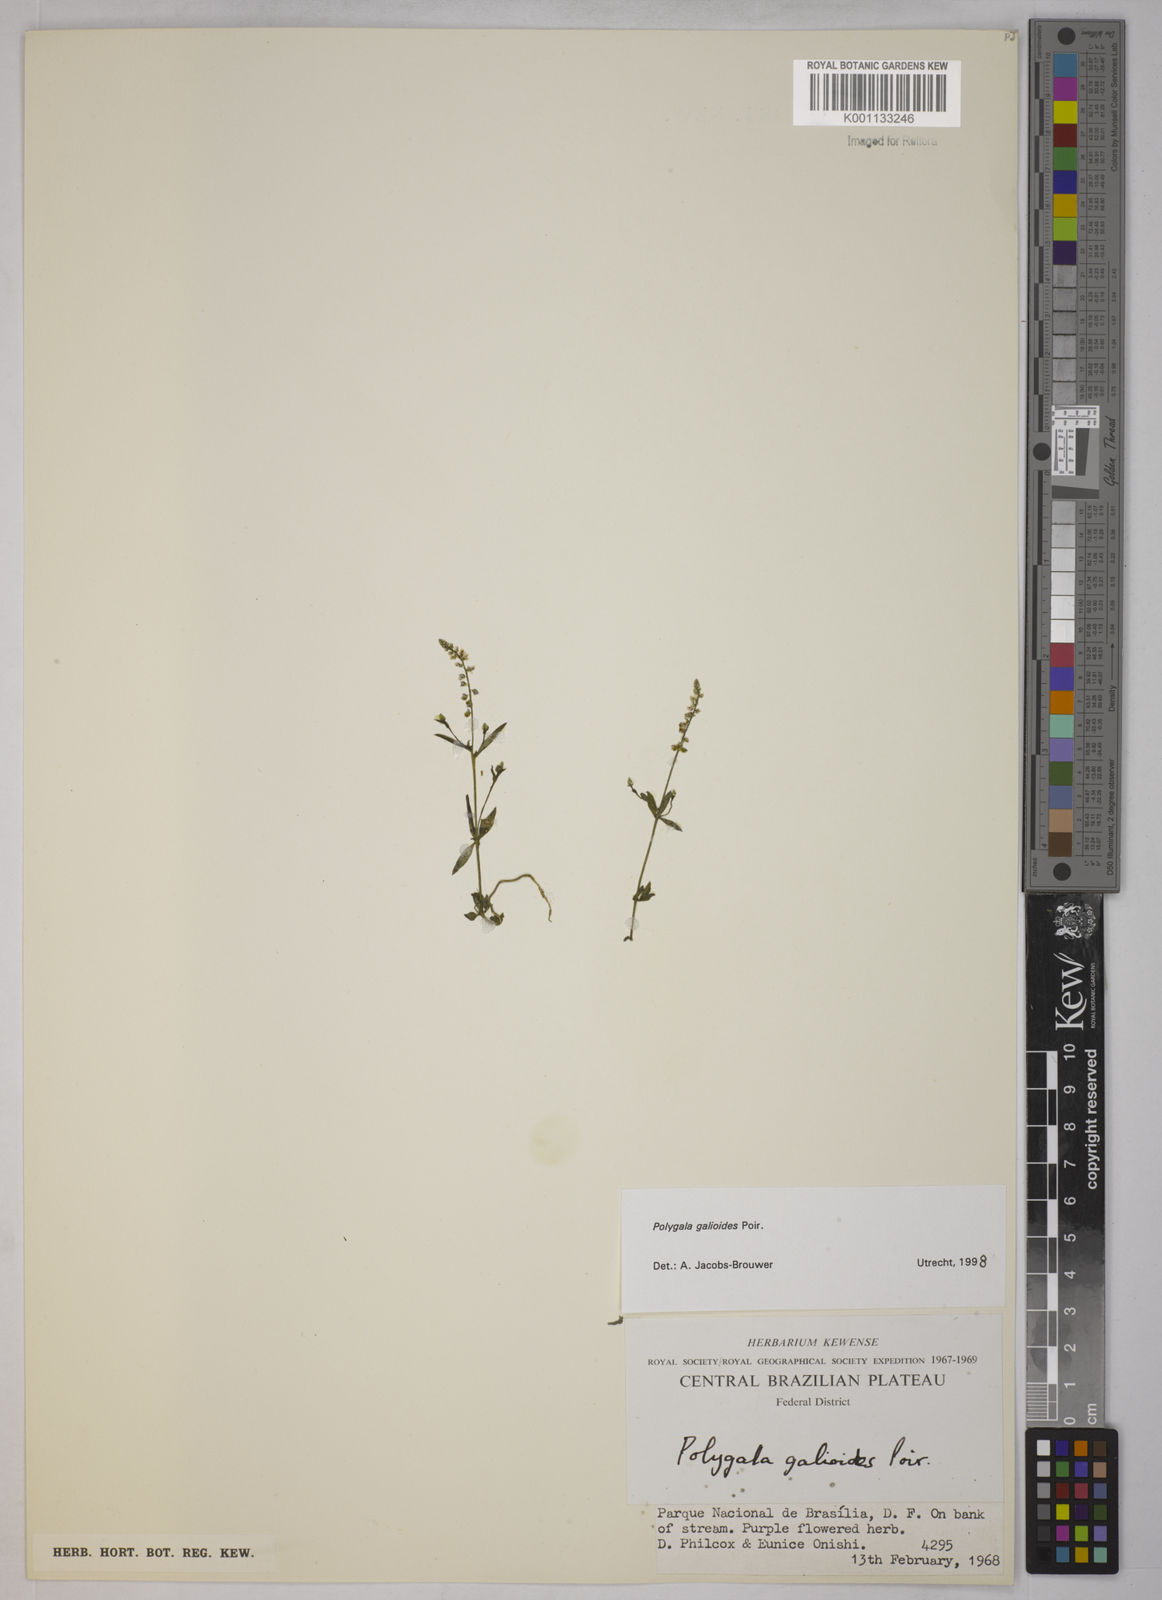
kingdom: Plantae
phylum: Tracheophyta
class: Magnoliopsida
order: Fabales
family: Polygalaceae
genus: Polygala
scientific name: Polygala galioides
